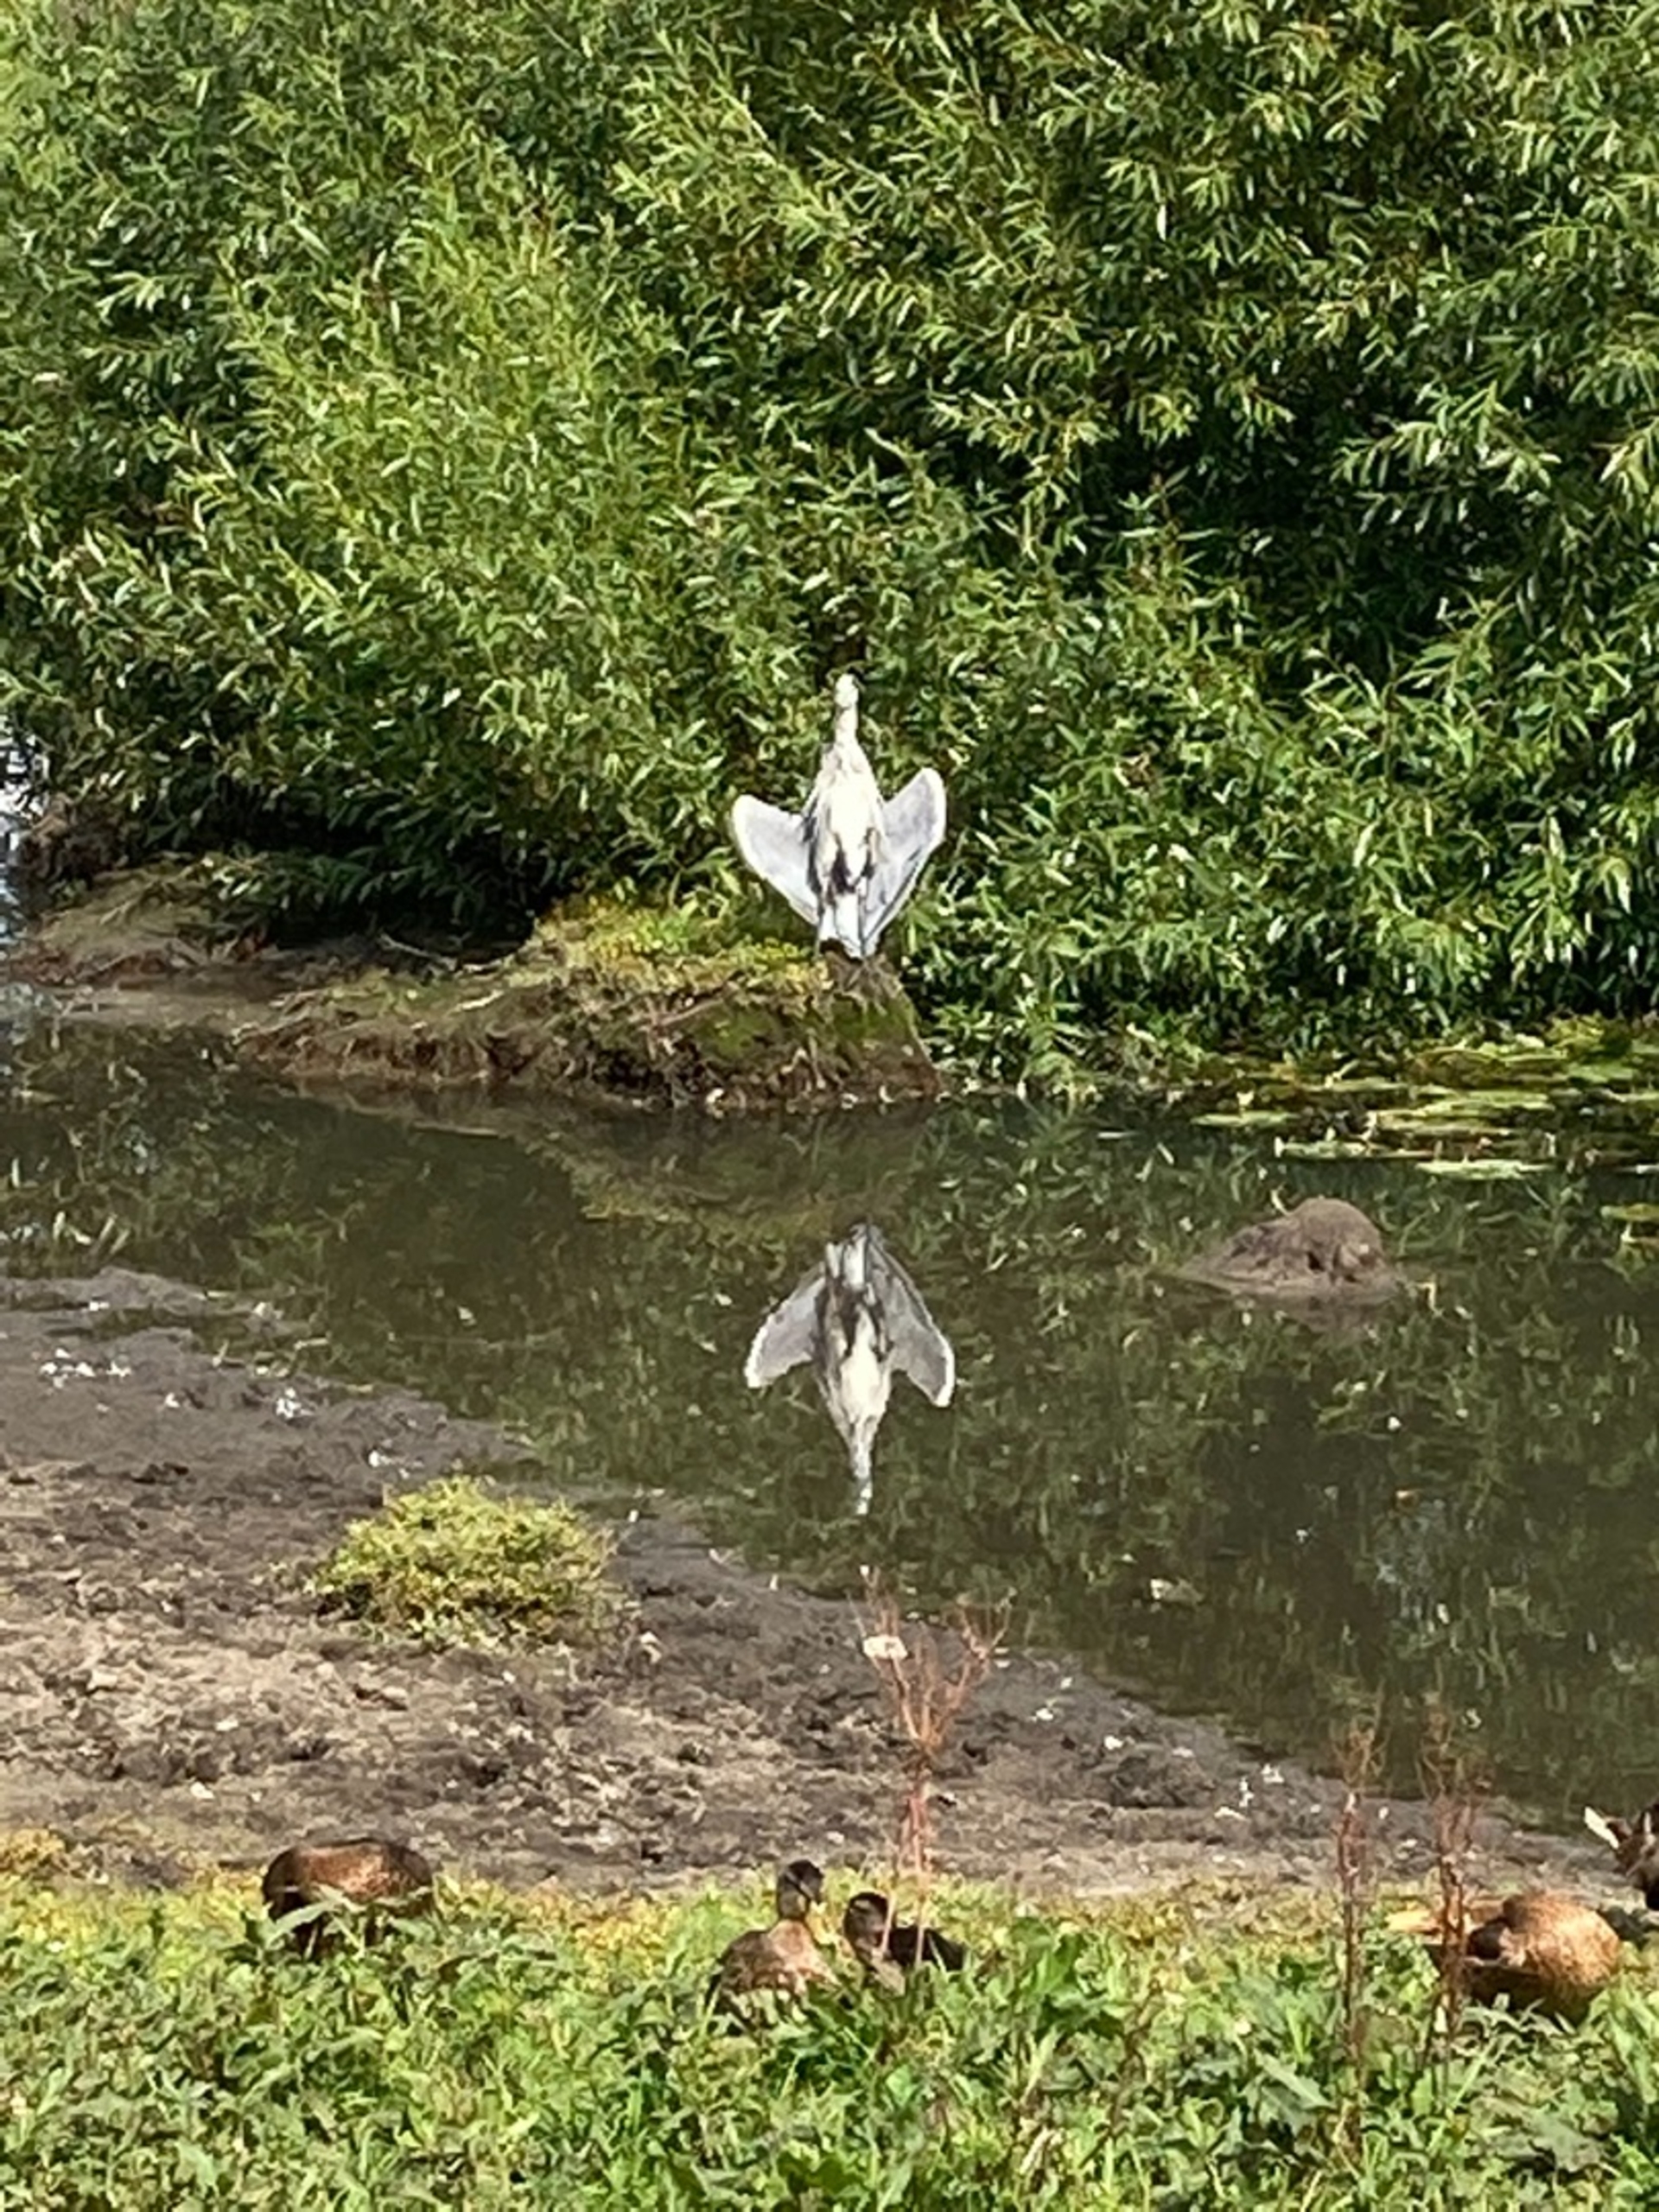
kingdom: Animalia
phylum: Chordata
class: Aves
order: Pelecaniformes
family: Ardeidae
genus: Ardea
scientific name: Ardea cinerea
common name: Fiskehejre
